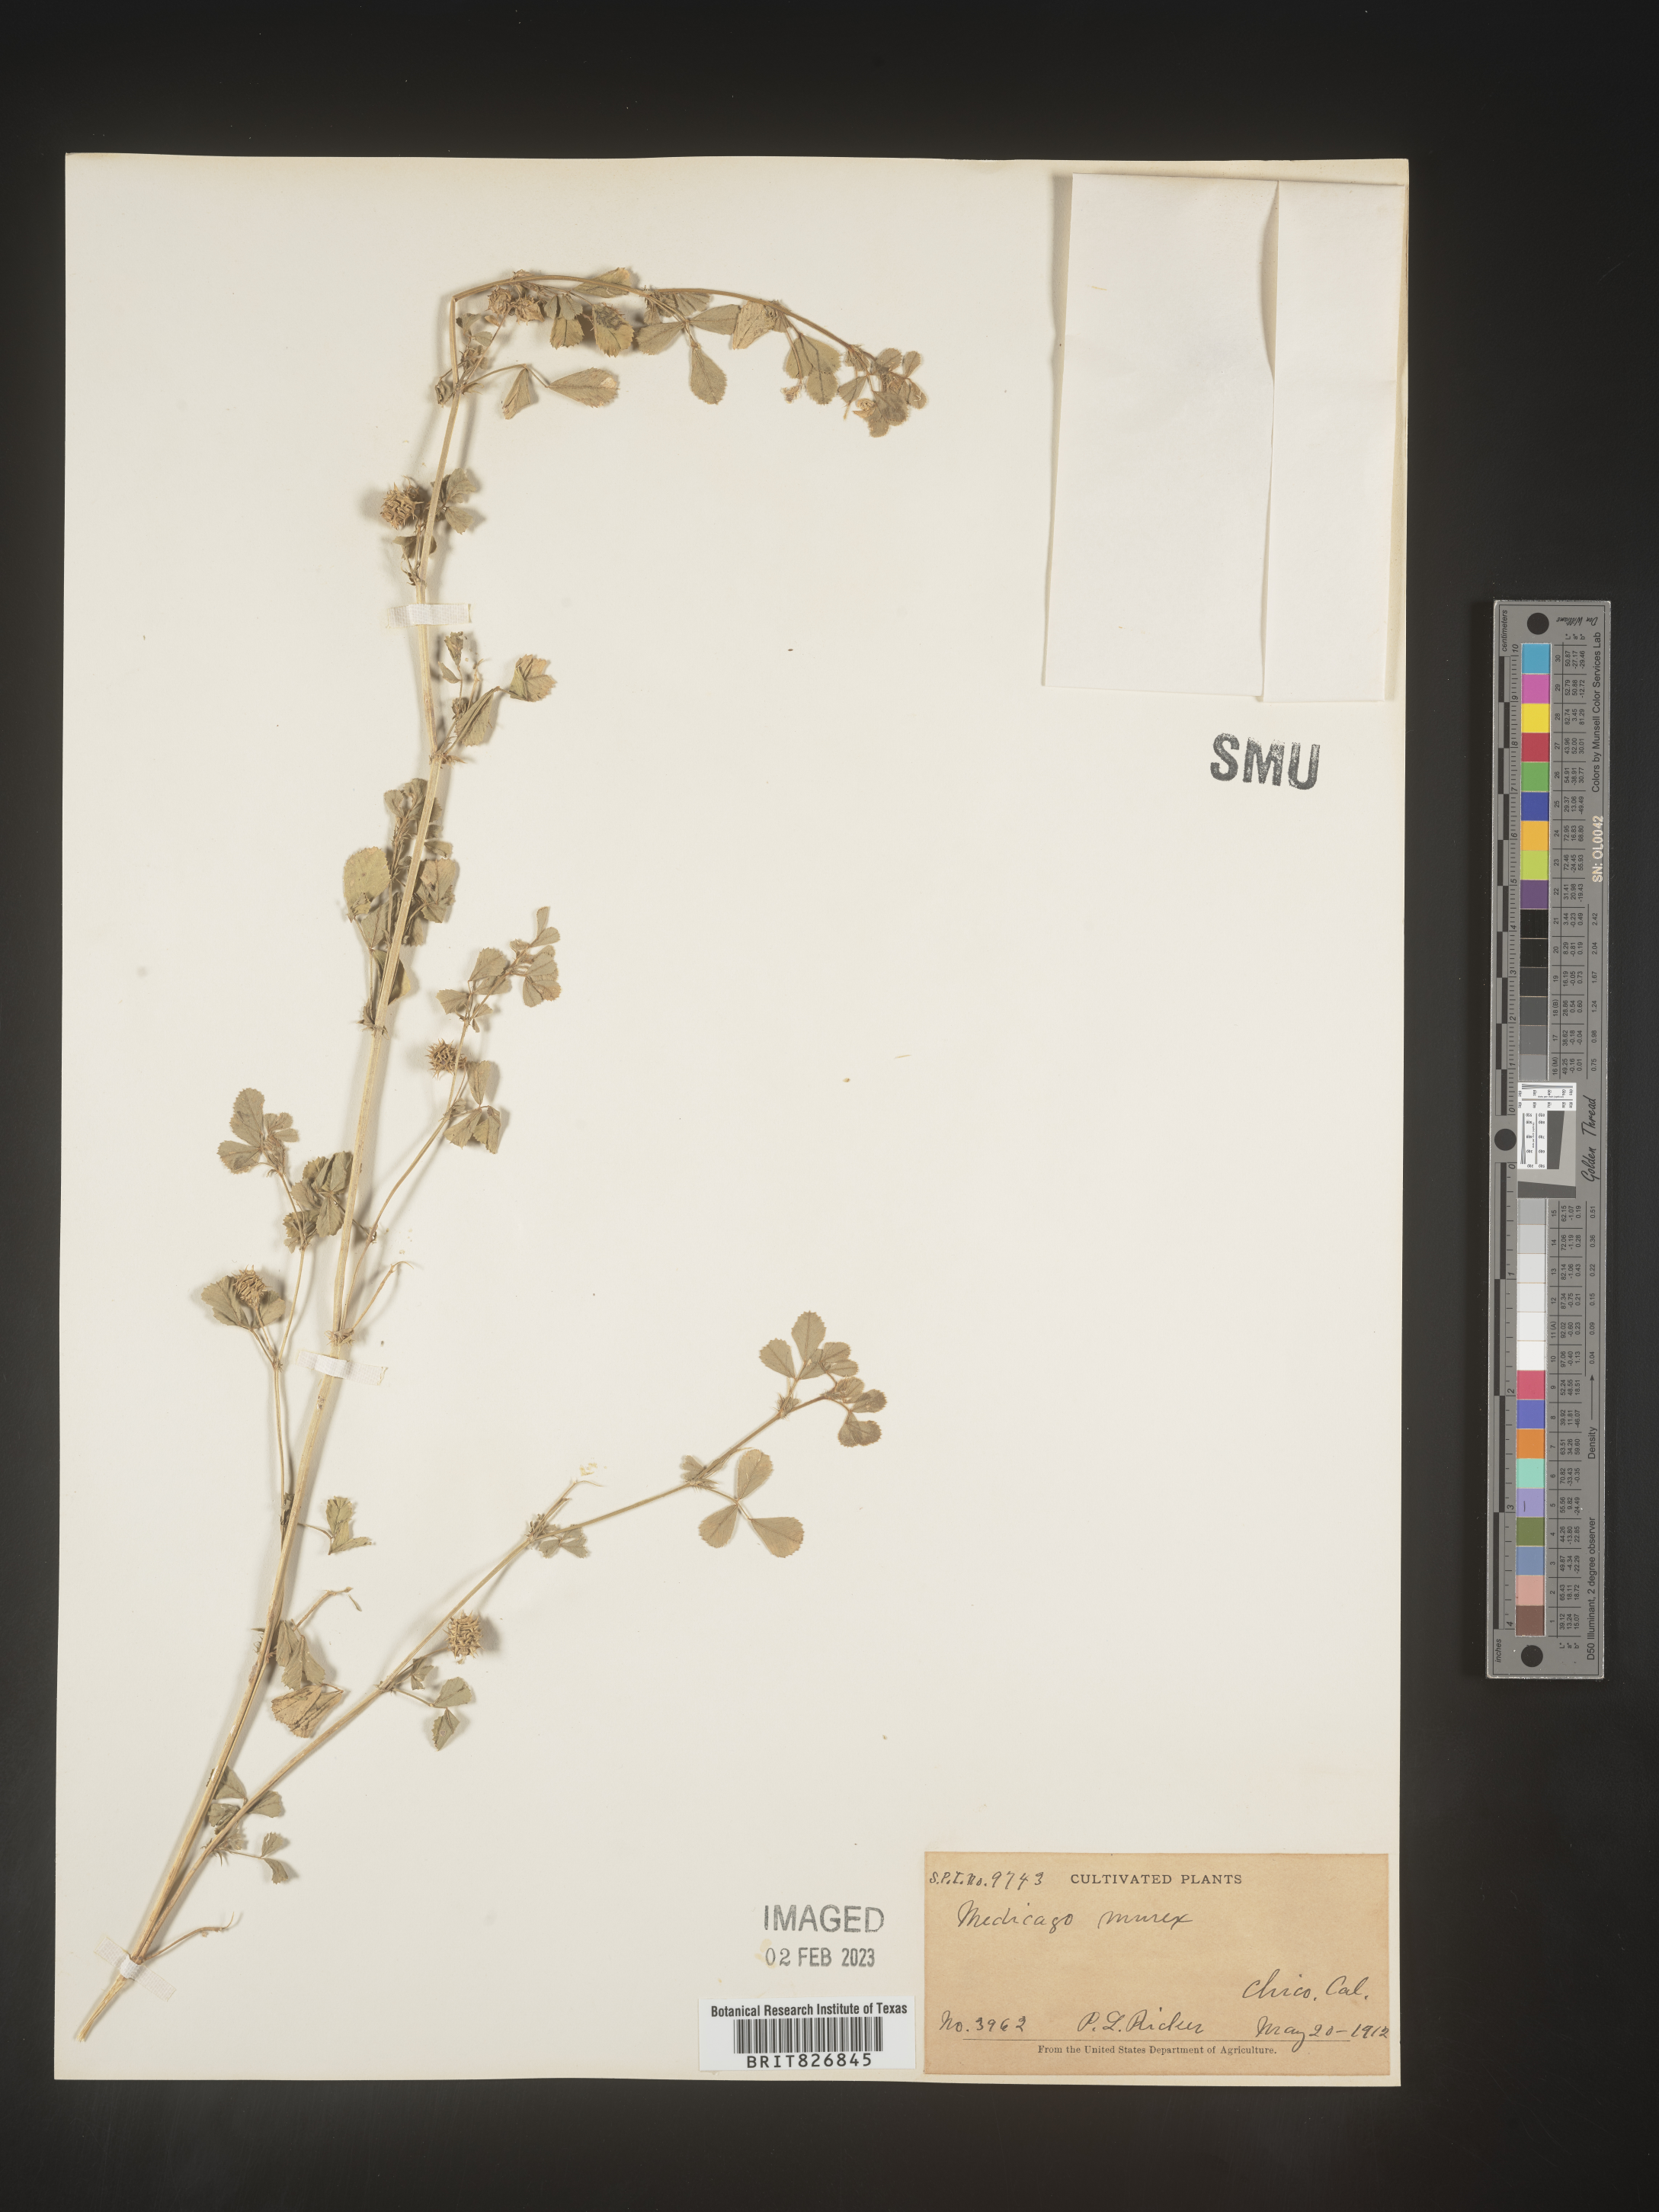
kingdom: Plantae
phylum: Tracheophyta
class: Magnoliopsida
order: Fabales
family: Fabaceae
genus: Medicago
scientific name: Medicago
